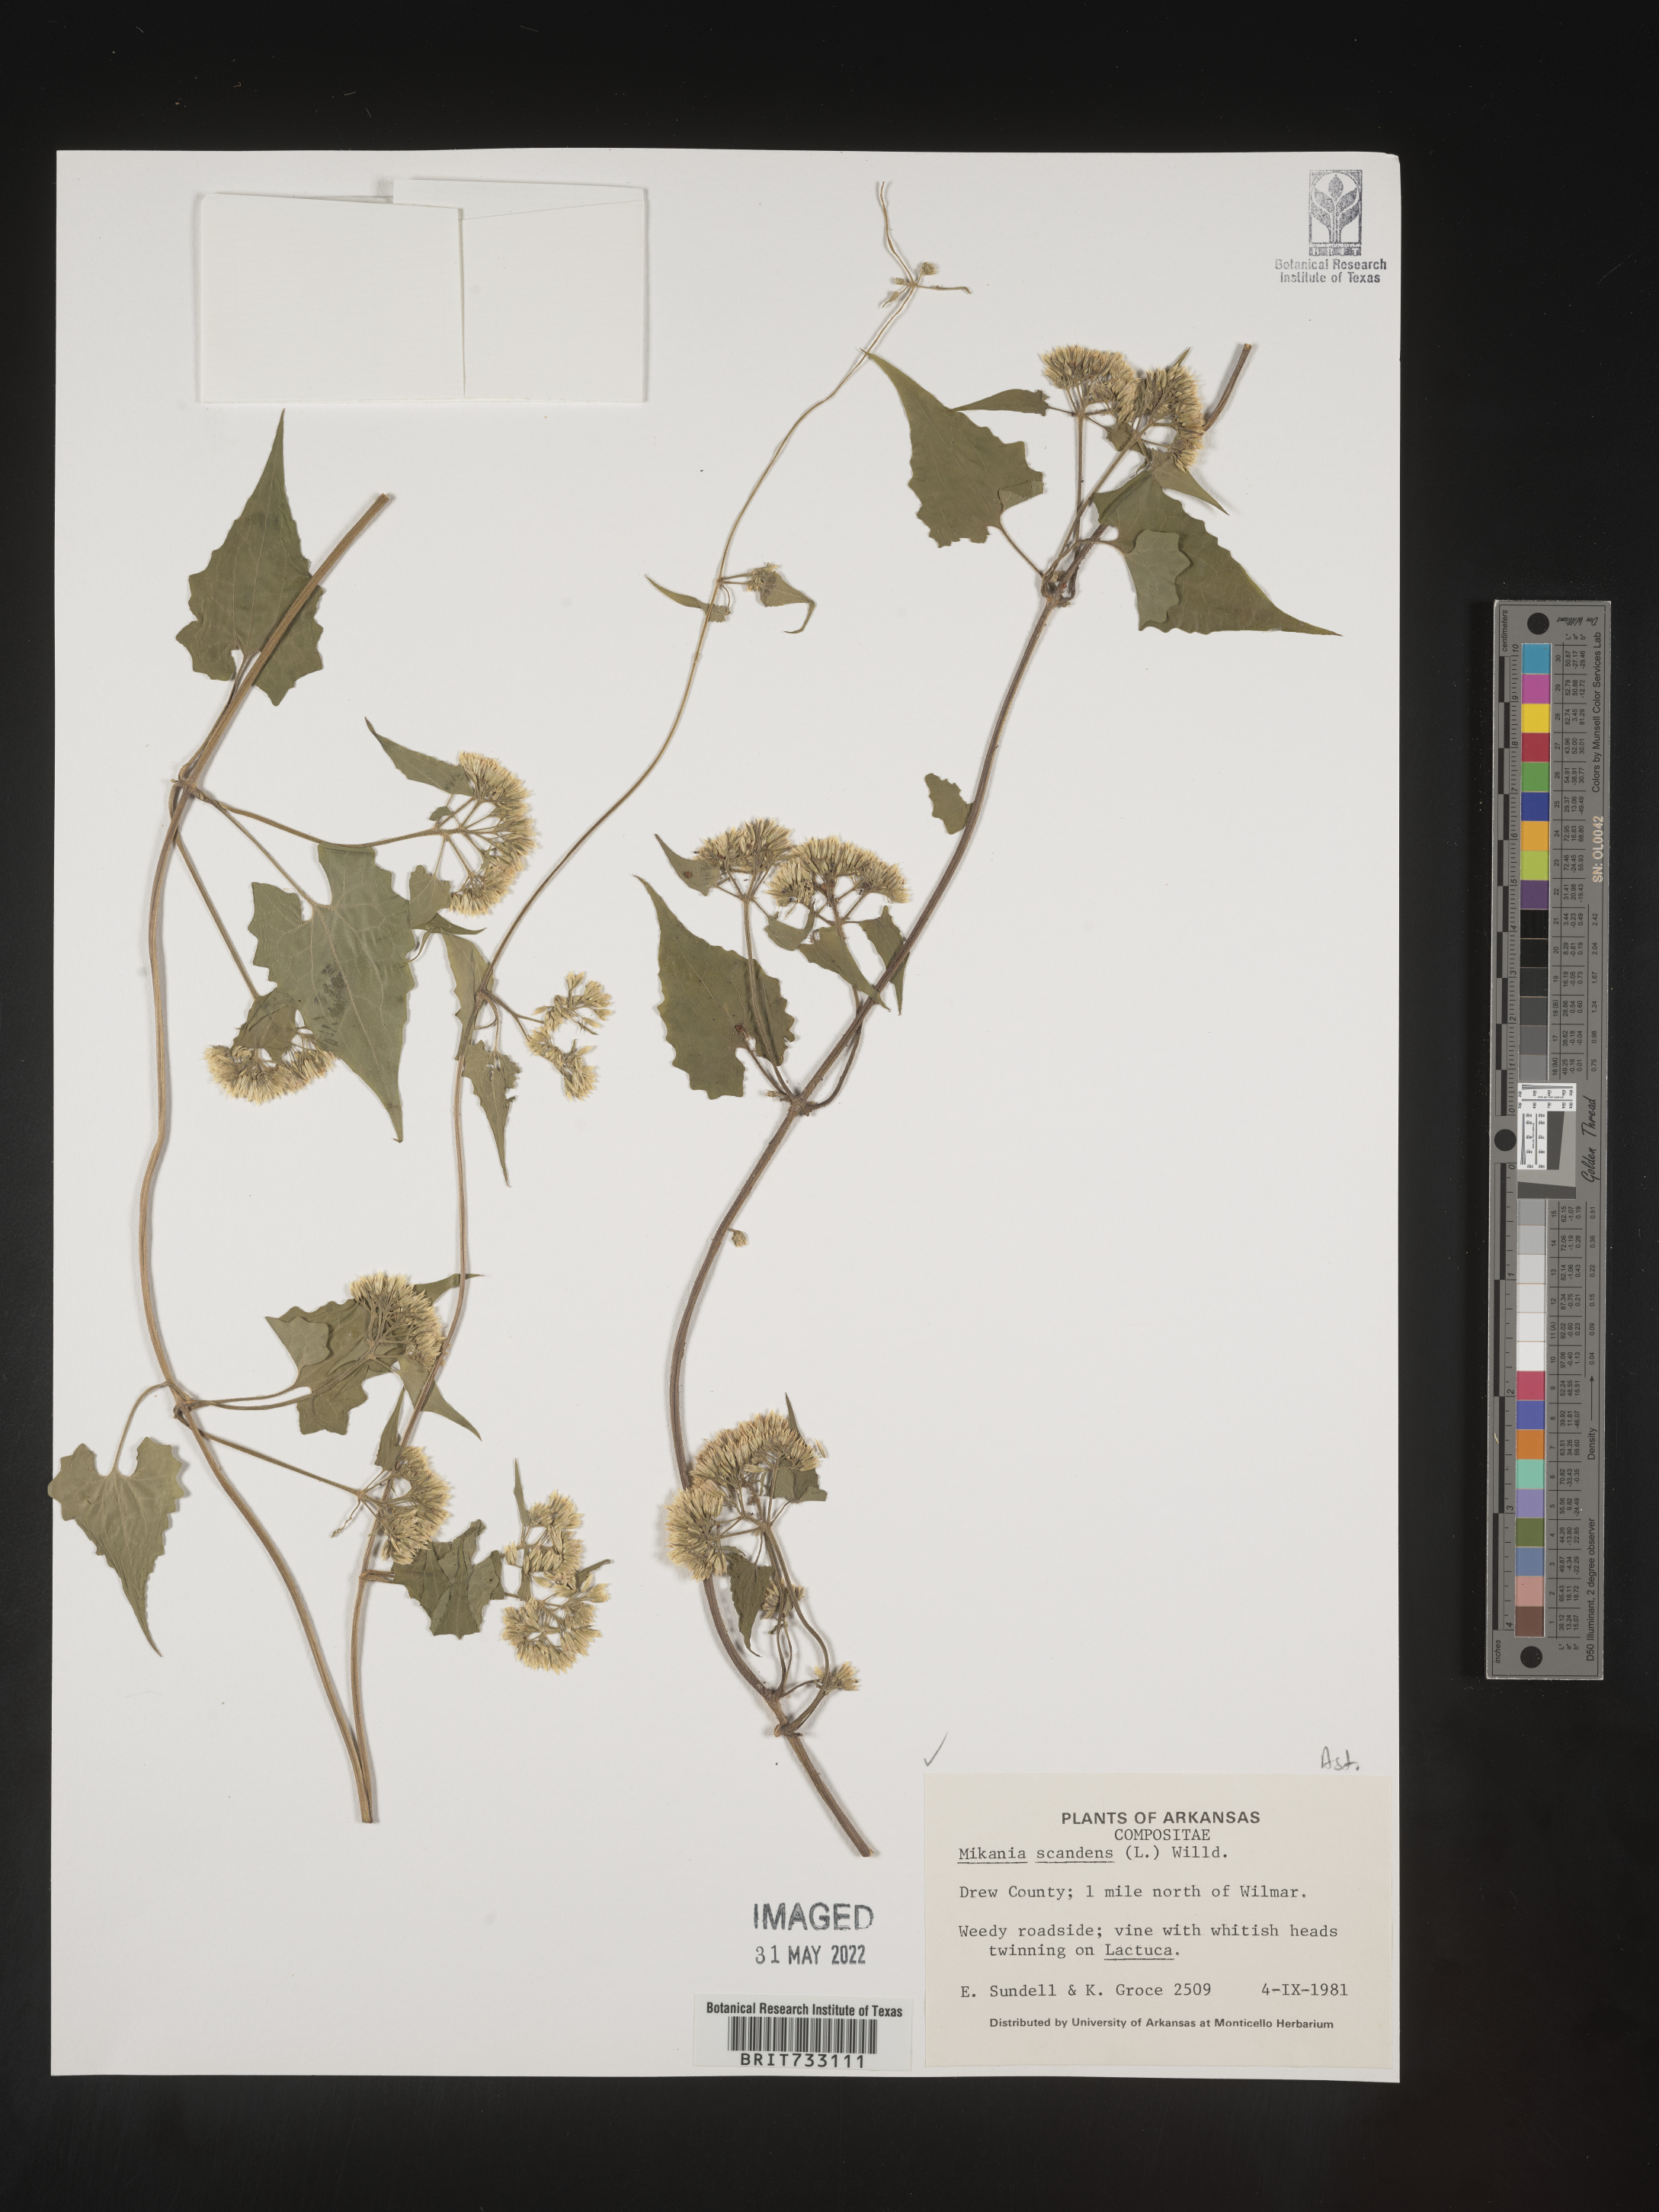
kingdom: Plantae
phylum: Tracheophyta
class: Magnoliopsida
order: Asterales
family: Asteraceae
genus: Mikania
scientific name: Mikania scandens
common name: Climbing hempvine
